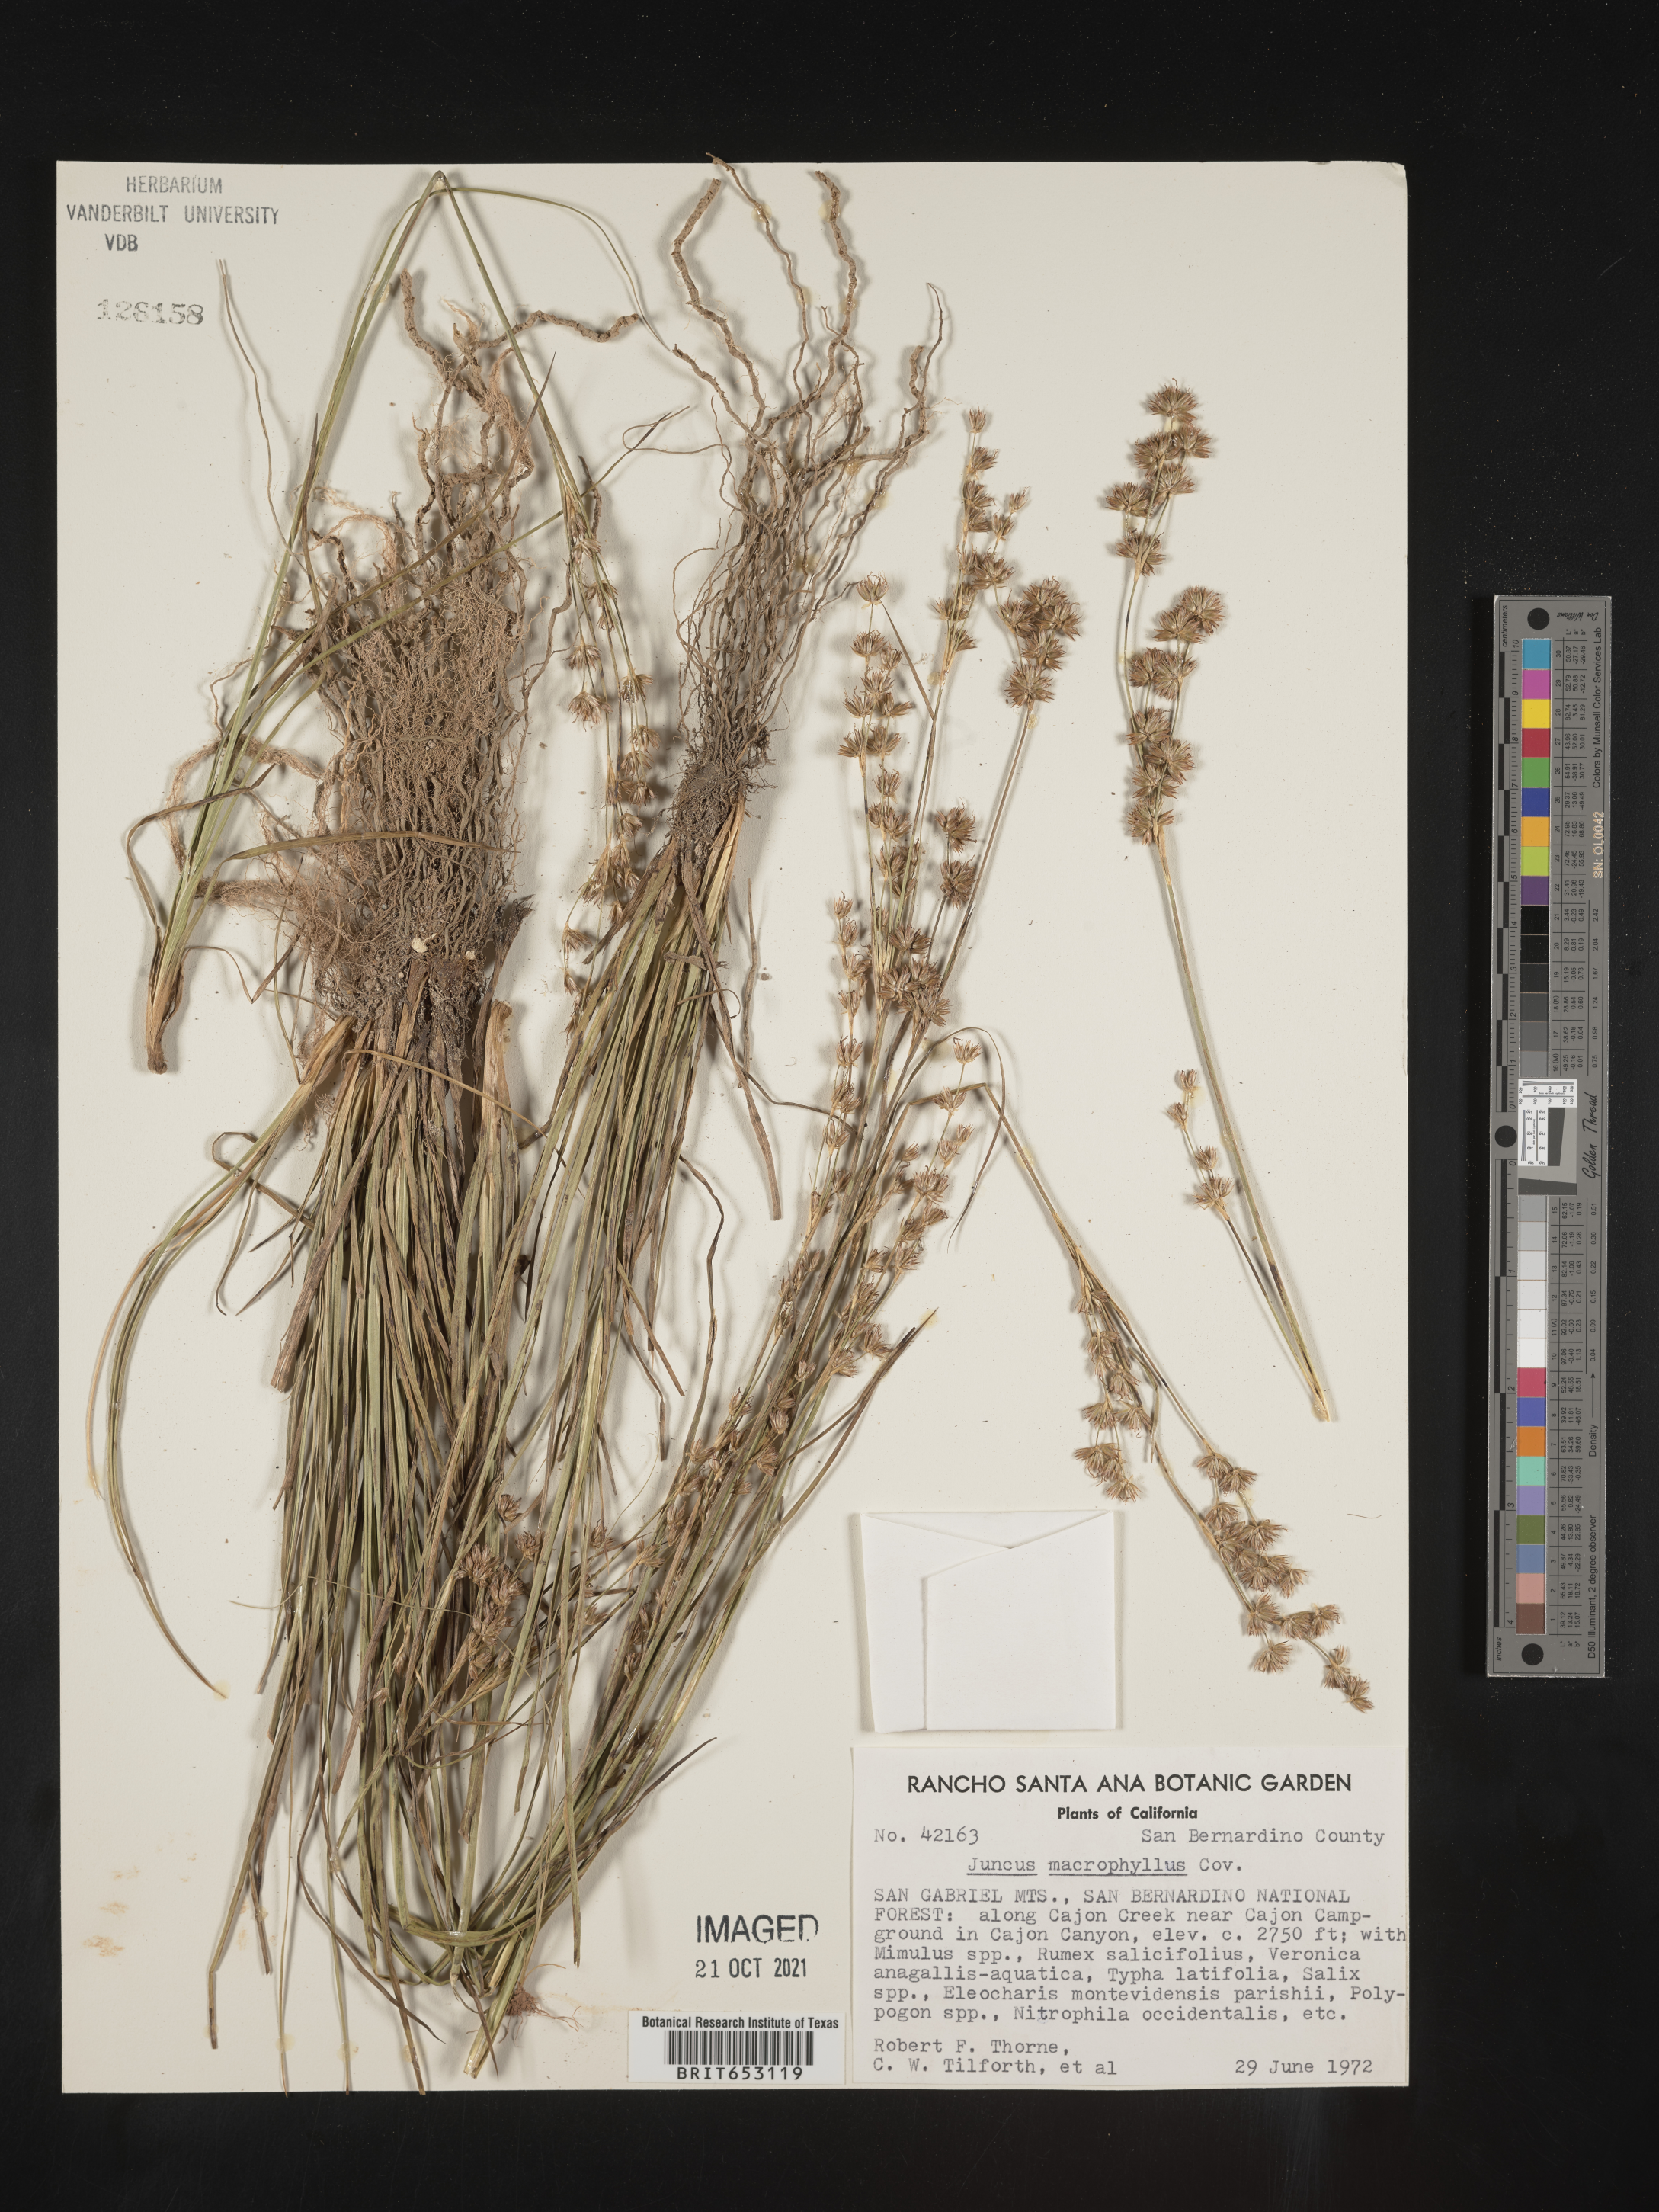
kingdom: Plantae
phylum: Tracheophyta
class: Liliopsida
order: Poales
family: Juncaceae
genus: Juncus
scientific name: Juncus macrophyllus
